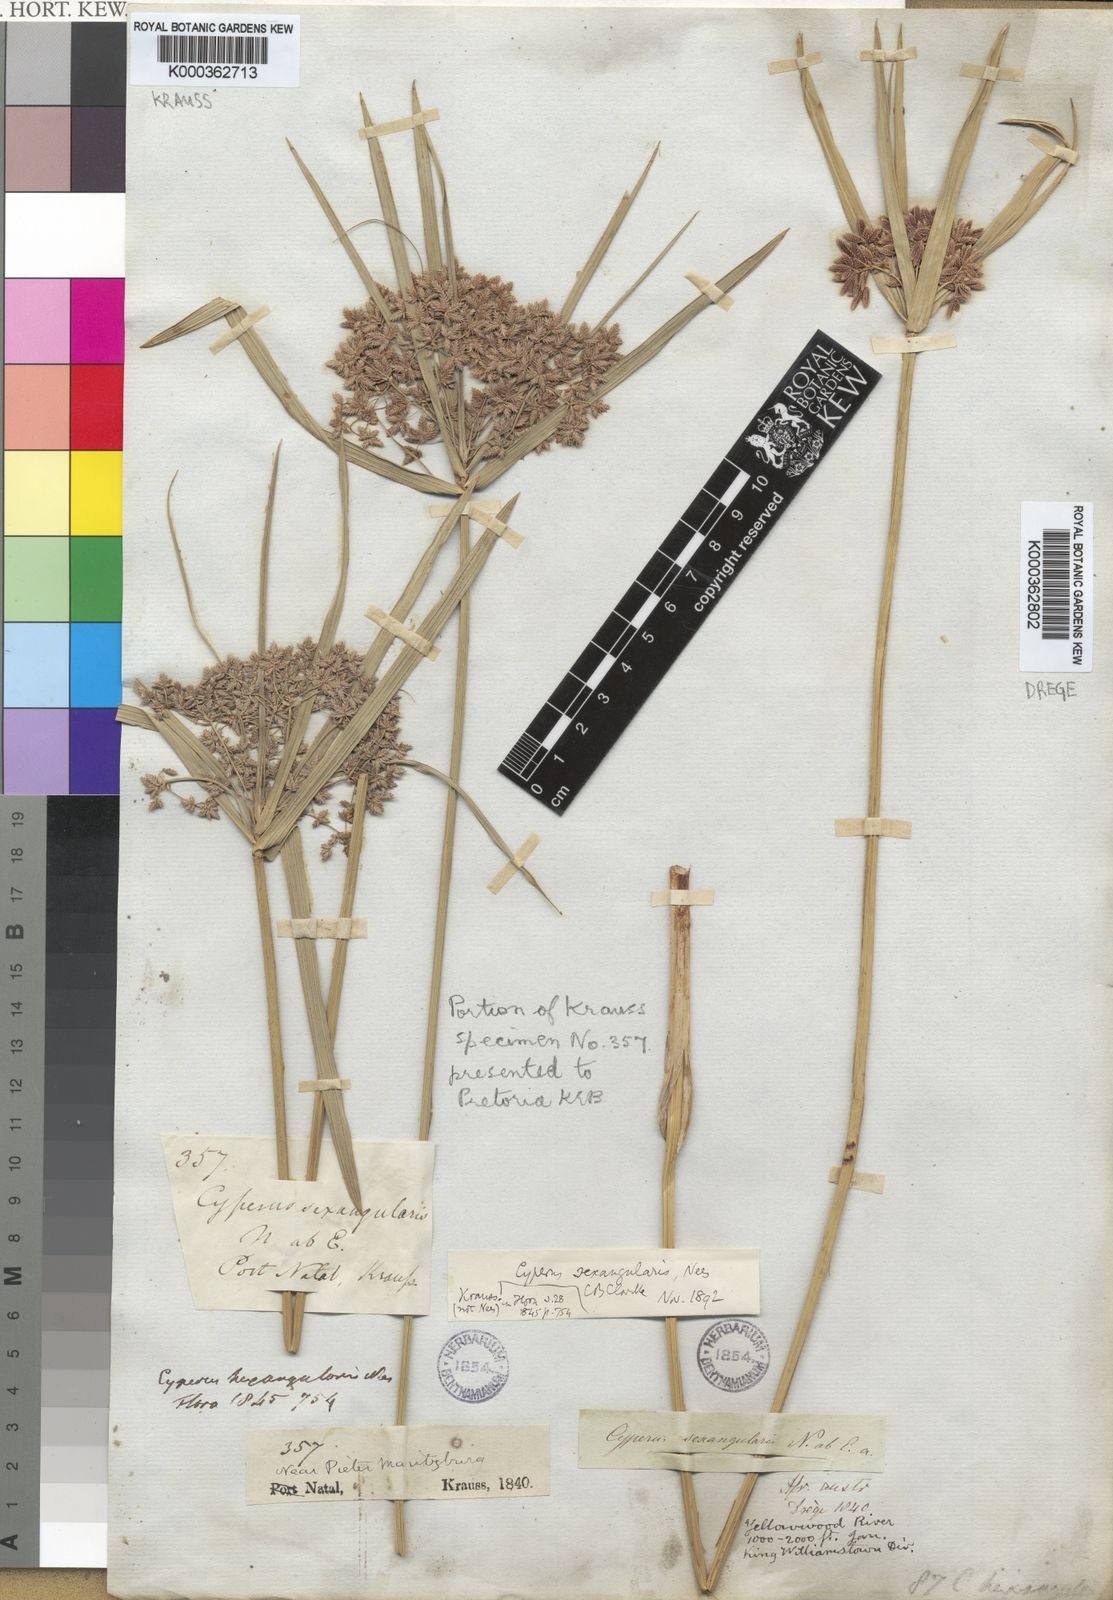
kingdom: Plantae
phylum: Tracheophyta
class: Liliopsida
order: Poales
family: Cyperaceae
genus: Cyperus
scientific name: Cyperus sexangularis
